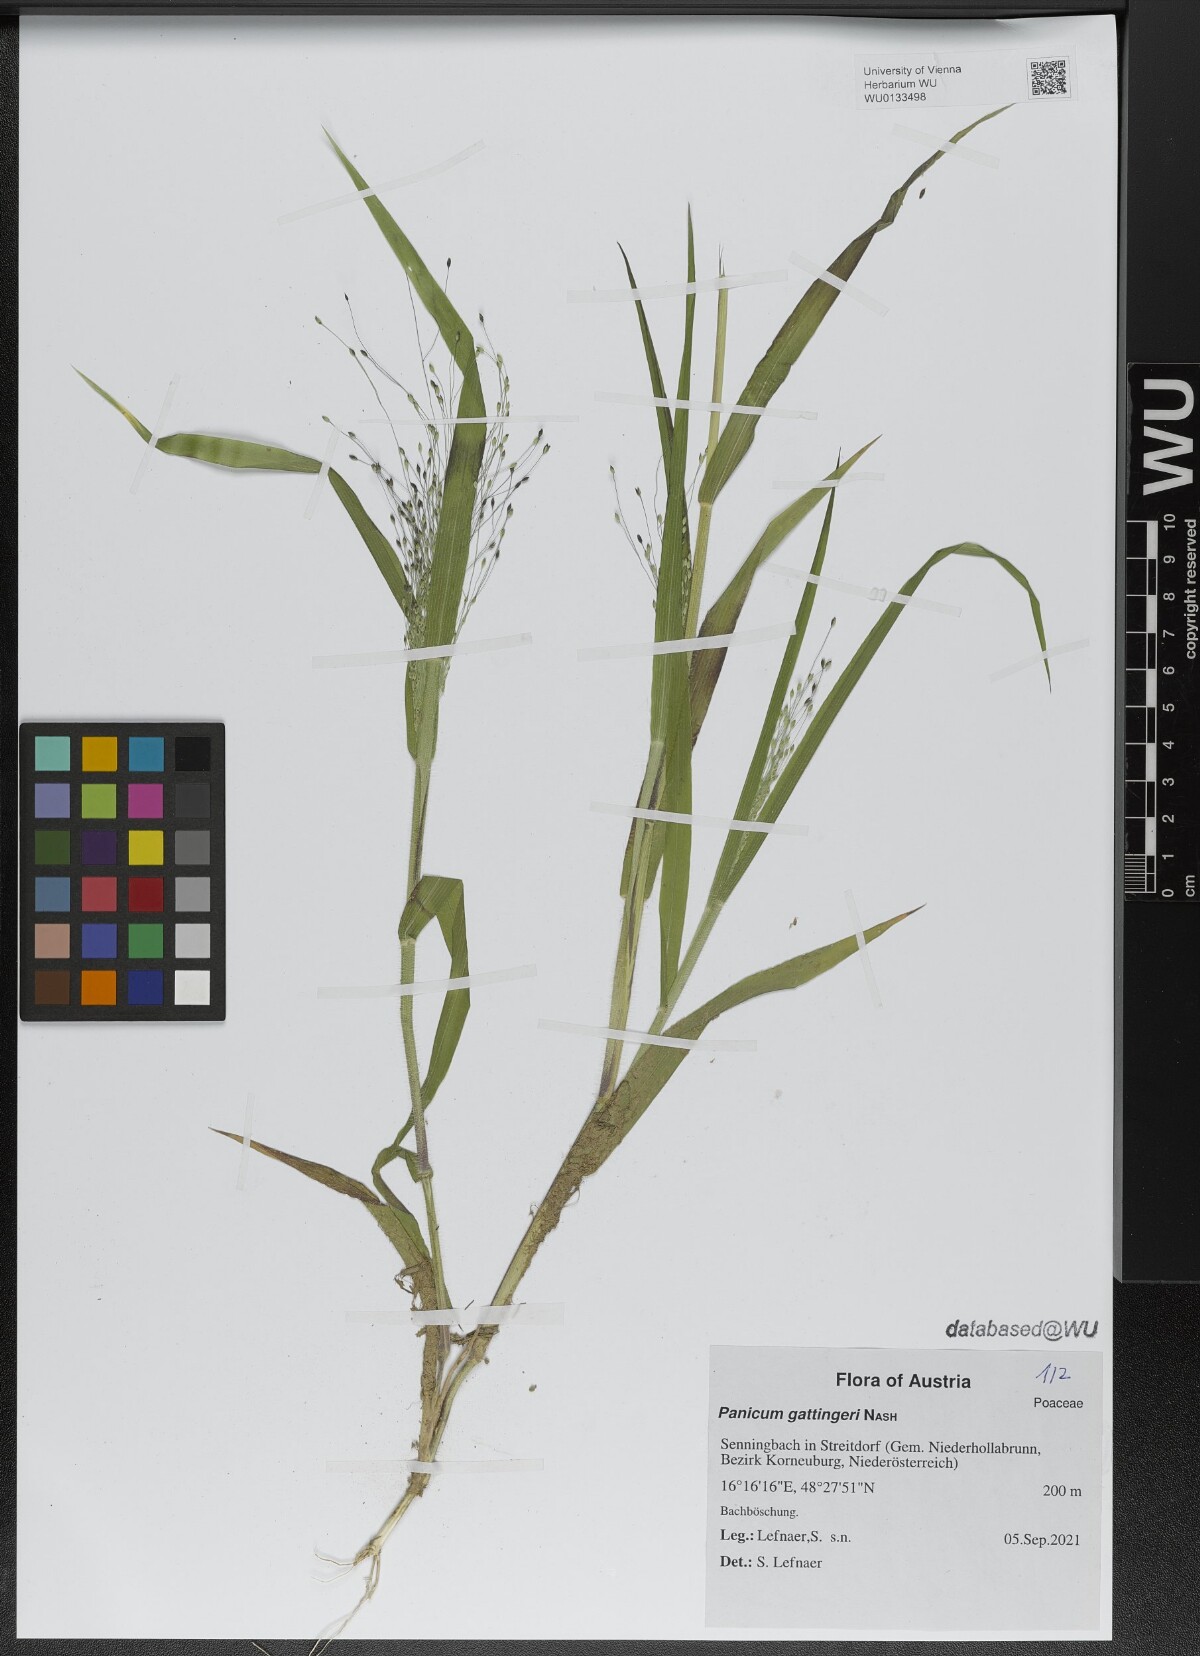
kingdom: Plantae
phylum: Tracheophyta
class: Liliopsida
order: Poales
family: Poaceae
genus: Panicum
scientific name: Panicum gattingeri
